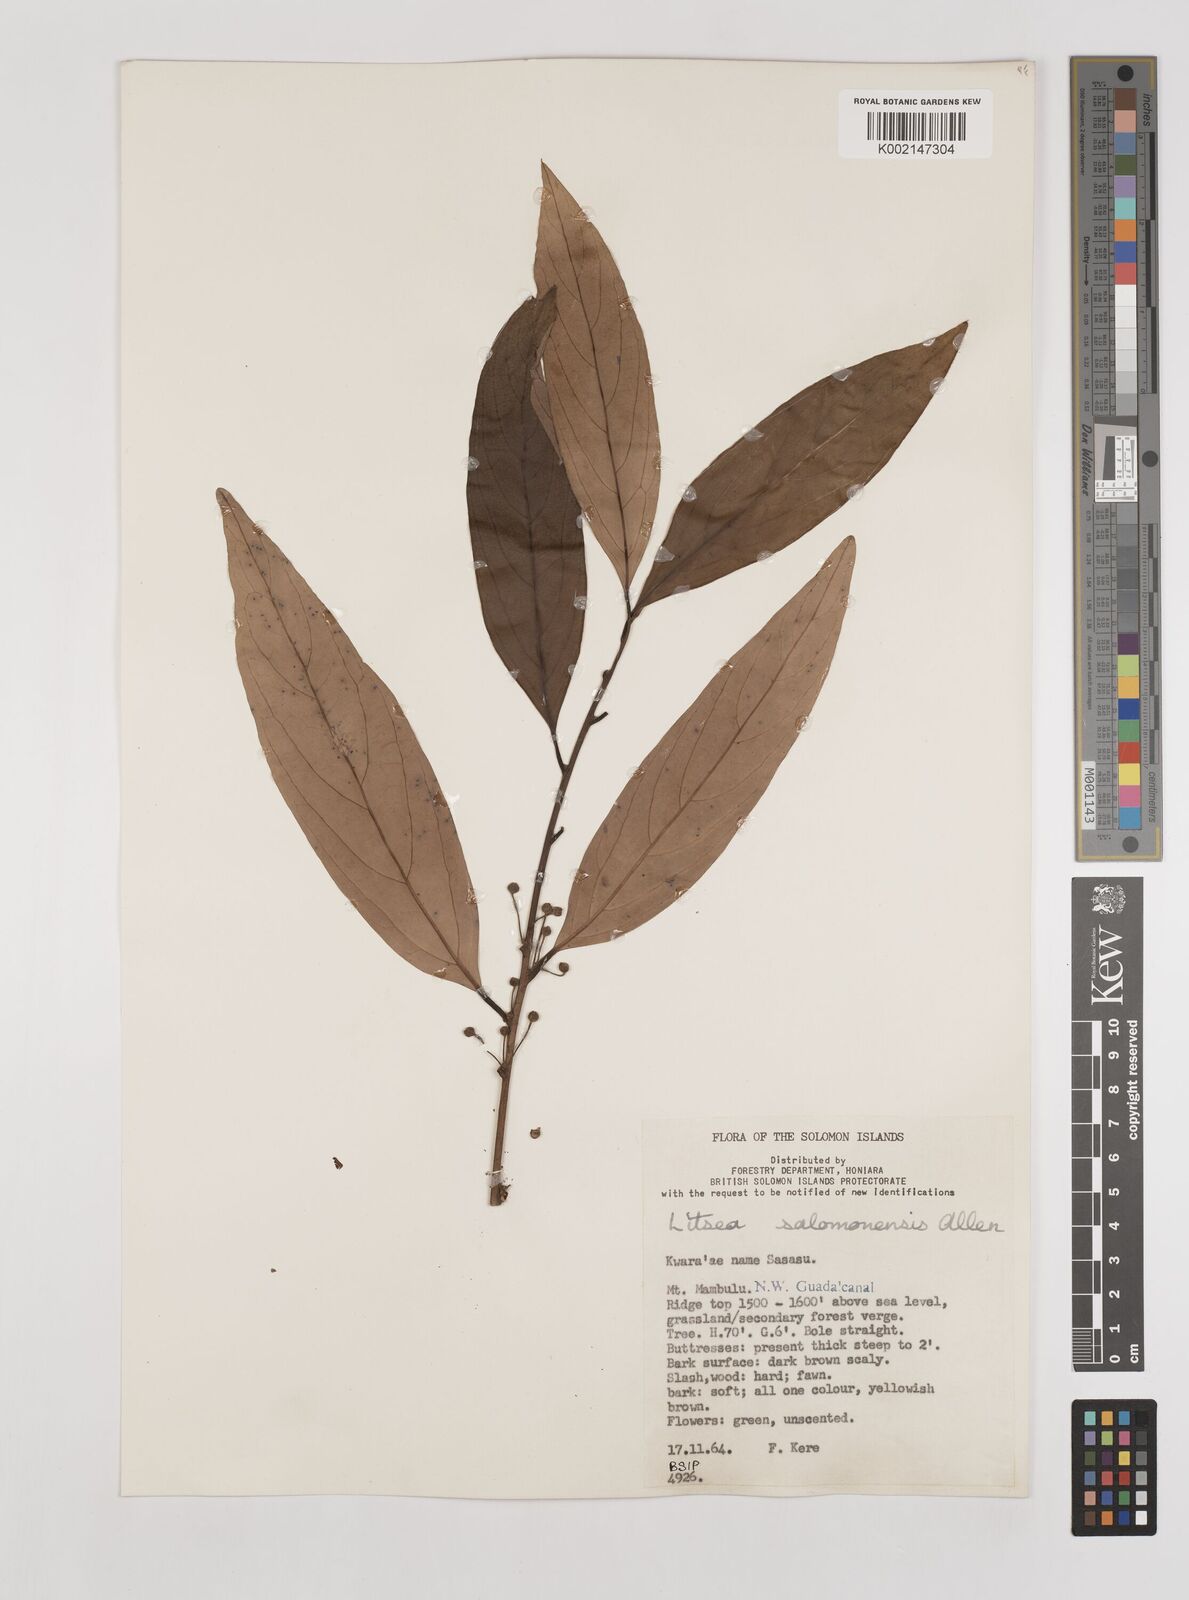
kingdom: Plantae
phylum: Tracheophyta
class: Magnoliopsida
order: Laurales
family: Lauraceae
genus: Litsea
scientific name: Litsea timoriana
